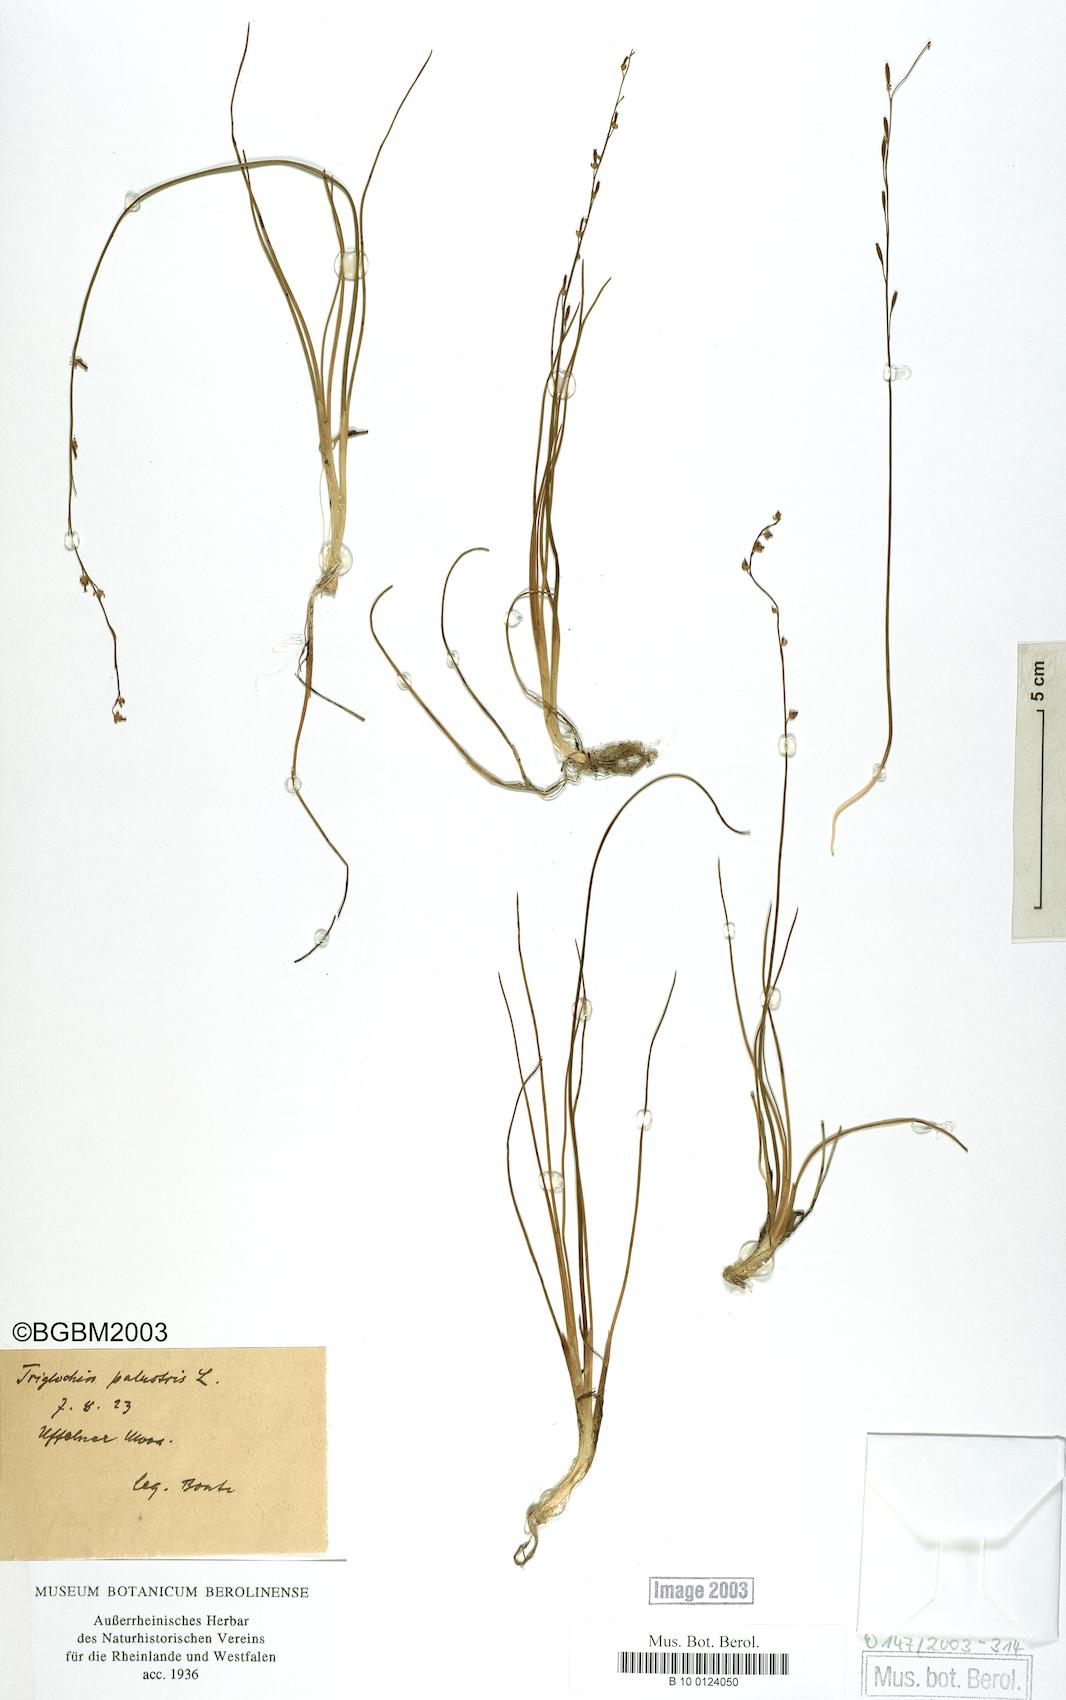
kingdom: Plantae
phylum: Tracheophyta
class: Liliopsida
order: Alismatales
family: Juncaginaceae
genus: Triglochin
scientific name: Triglochin palustris
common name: Marsh arrowgrass
